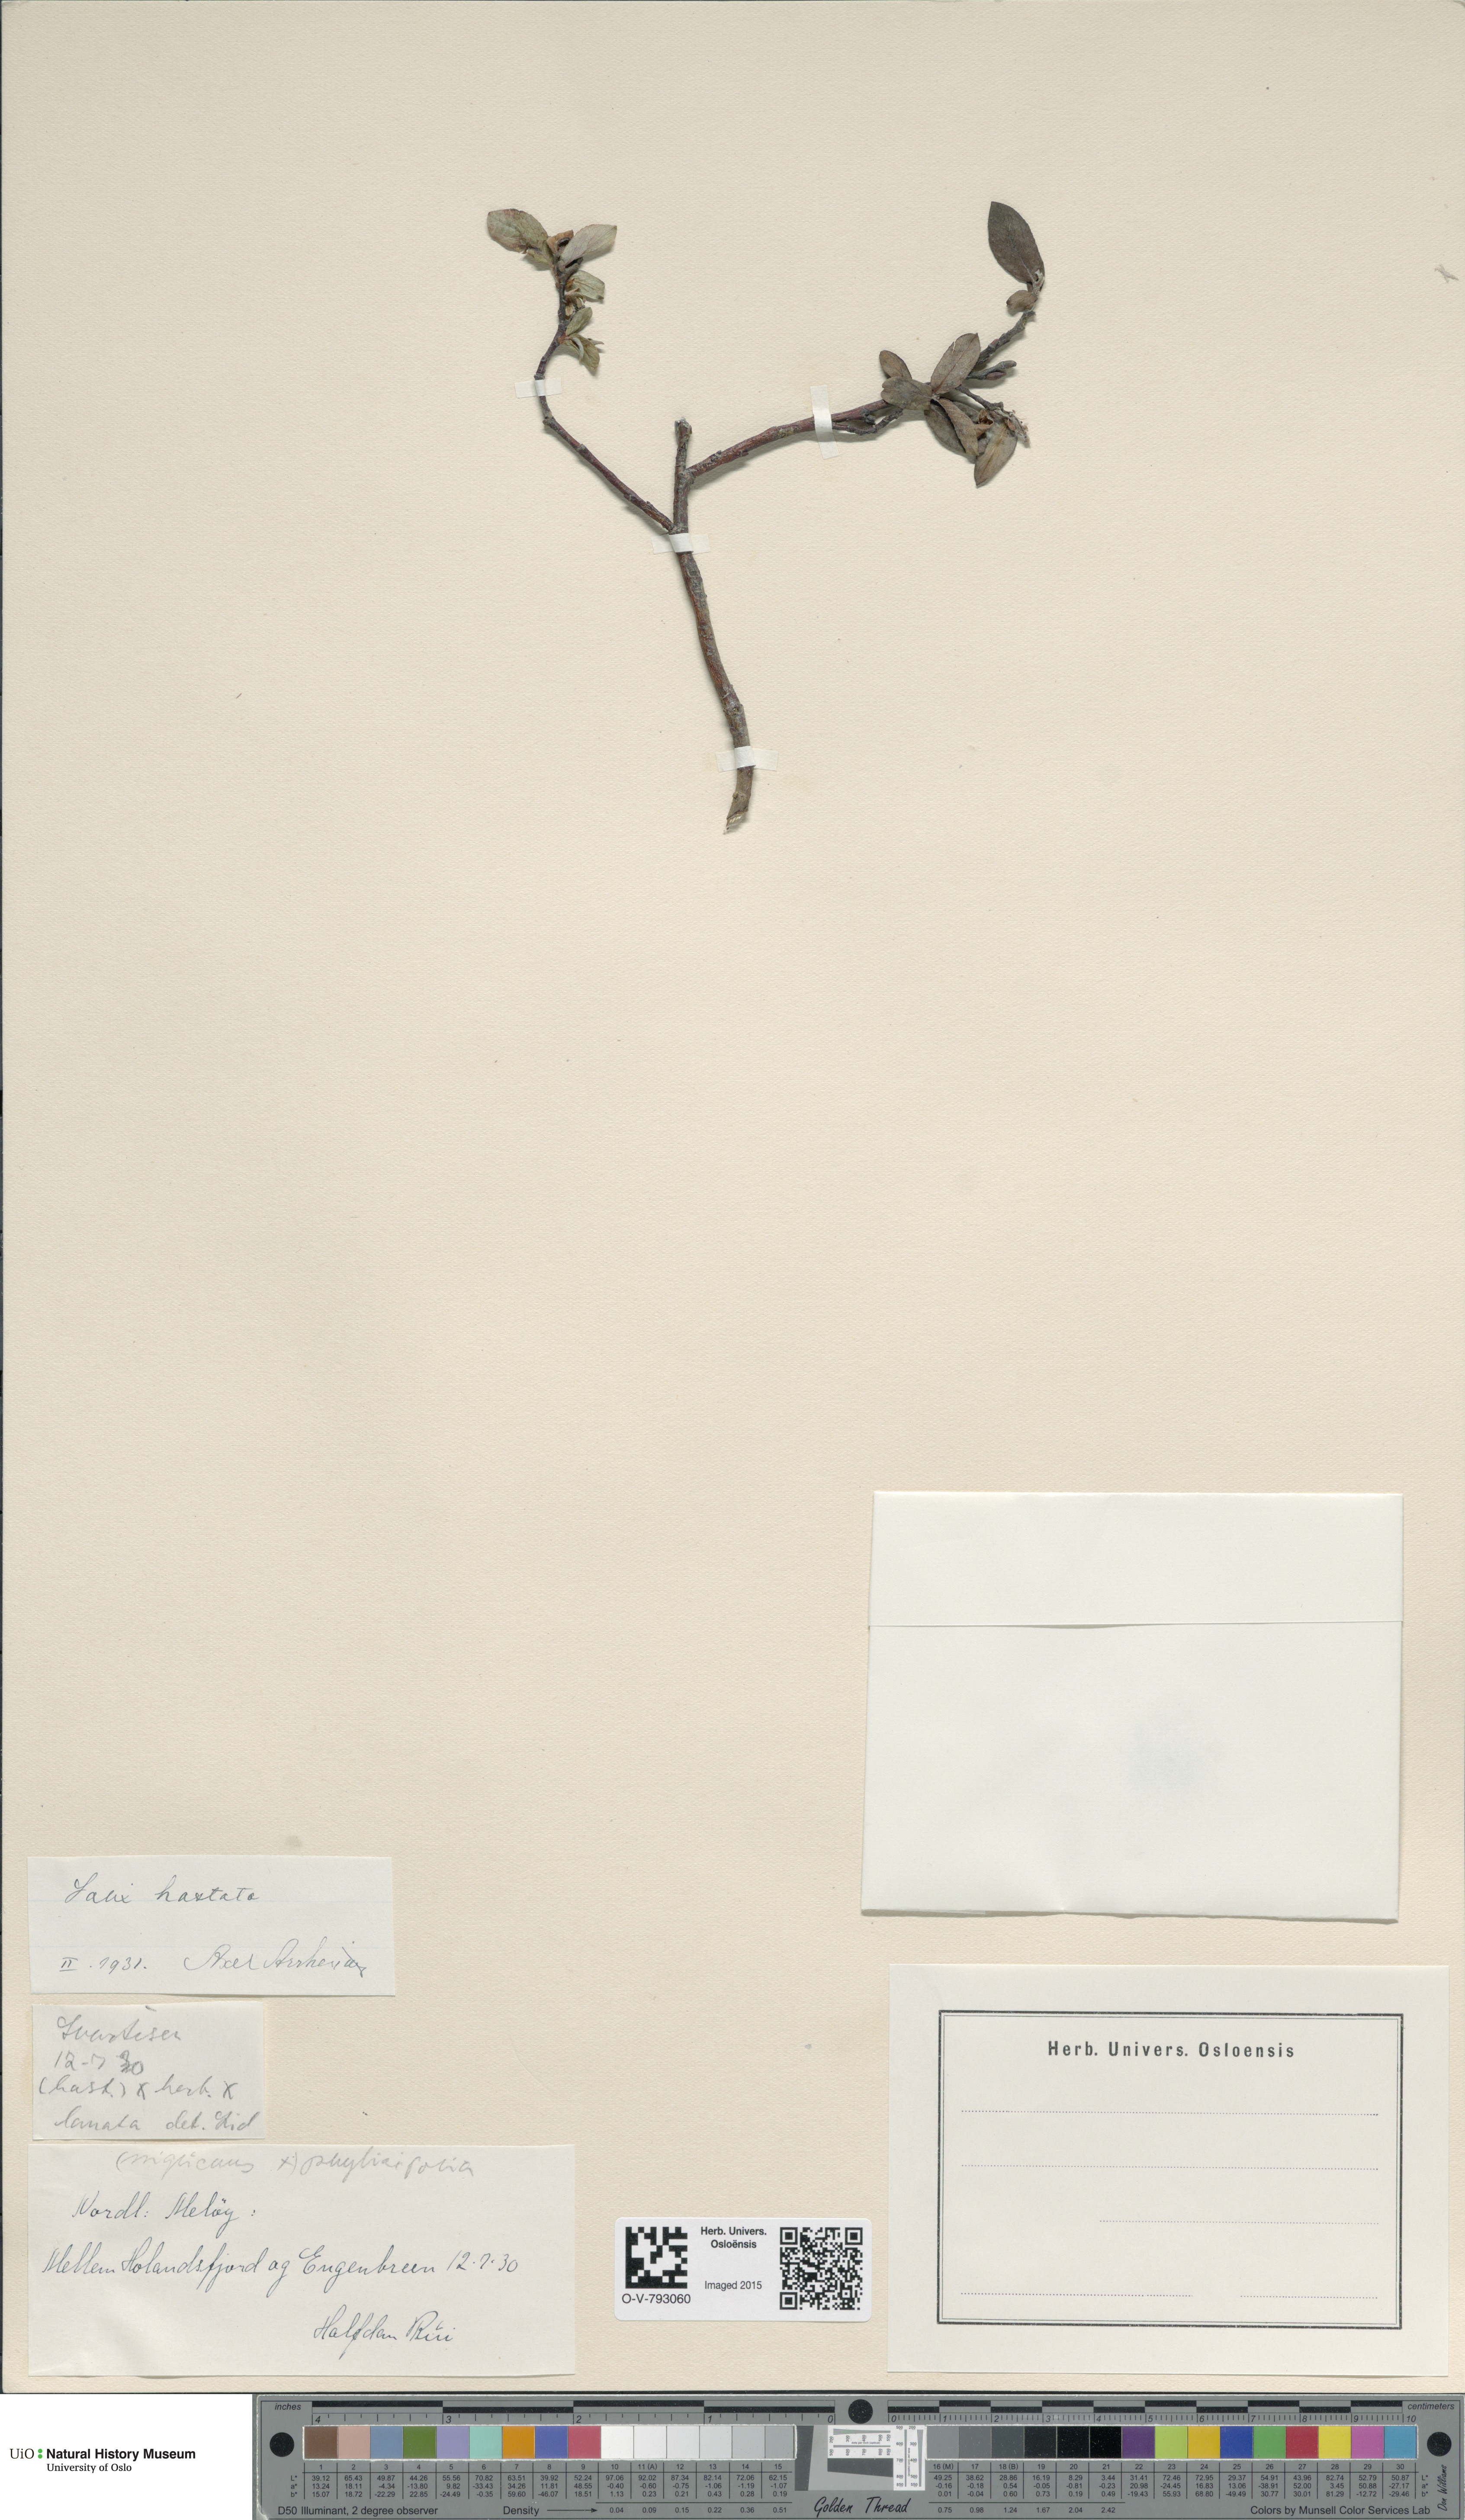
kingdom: Plantae
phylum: Tracheophyta
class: Magnoliopsida
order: Malpighiales
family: Salicaceae
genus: Salix
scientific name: Salix hastata
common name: Halberd willow
